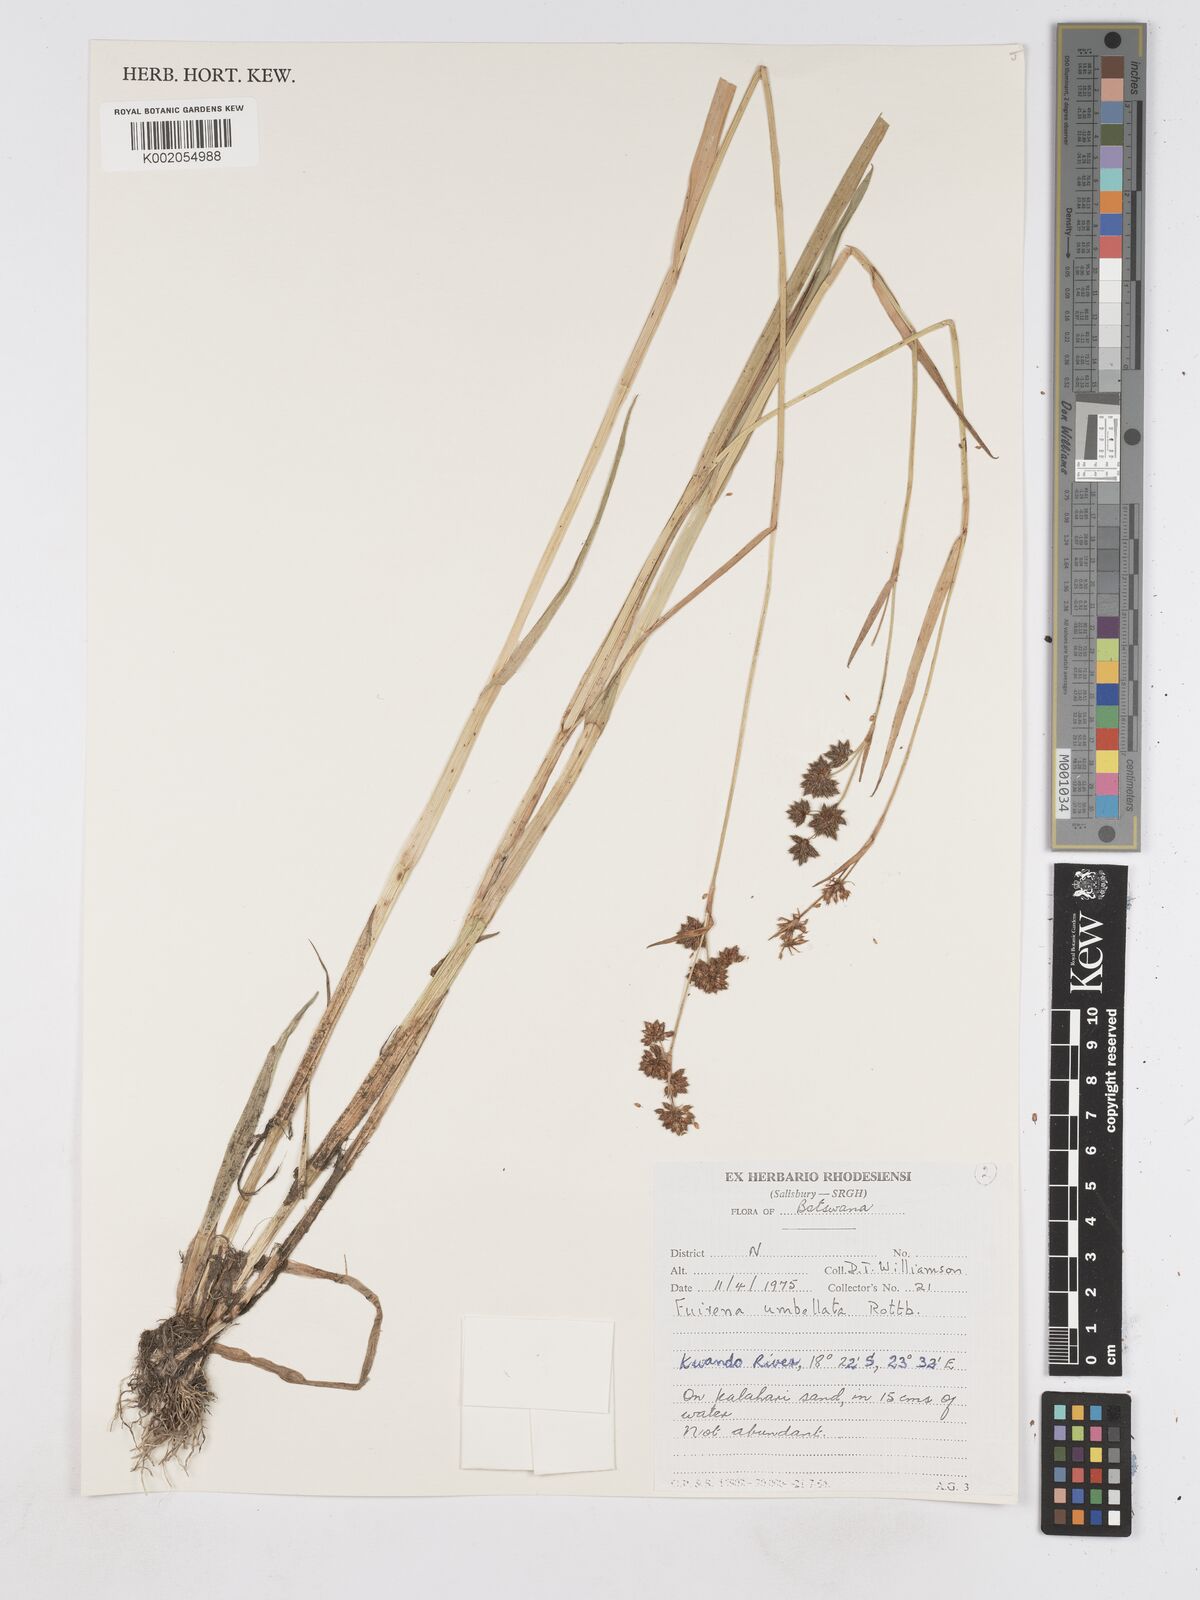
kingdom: Plantae
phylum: Tracheophyta
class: Liliopsida
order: Poales
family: Cyperaceae
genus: Fuirena
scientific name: Fuirena umbellata
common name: Yefen
